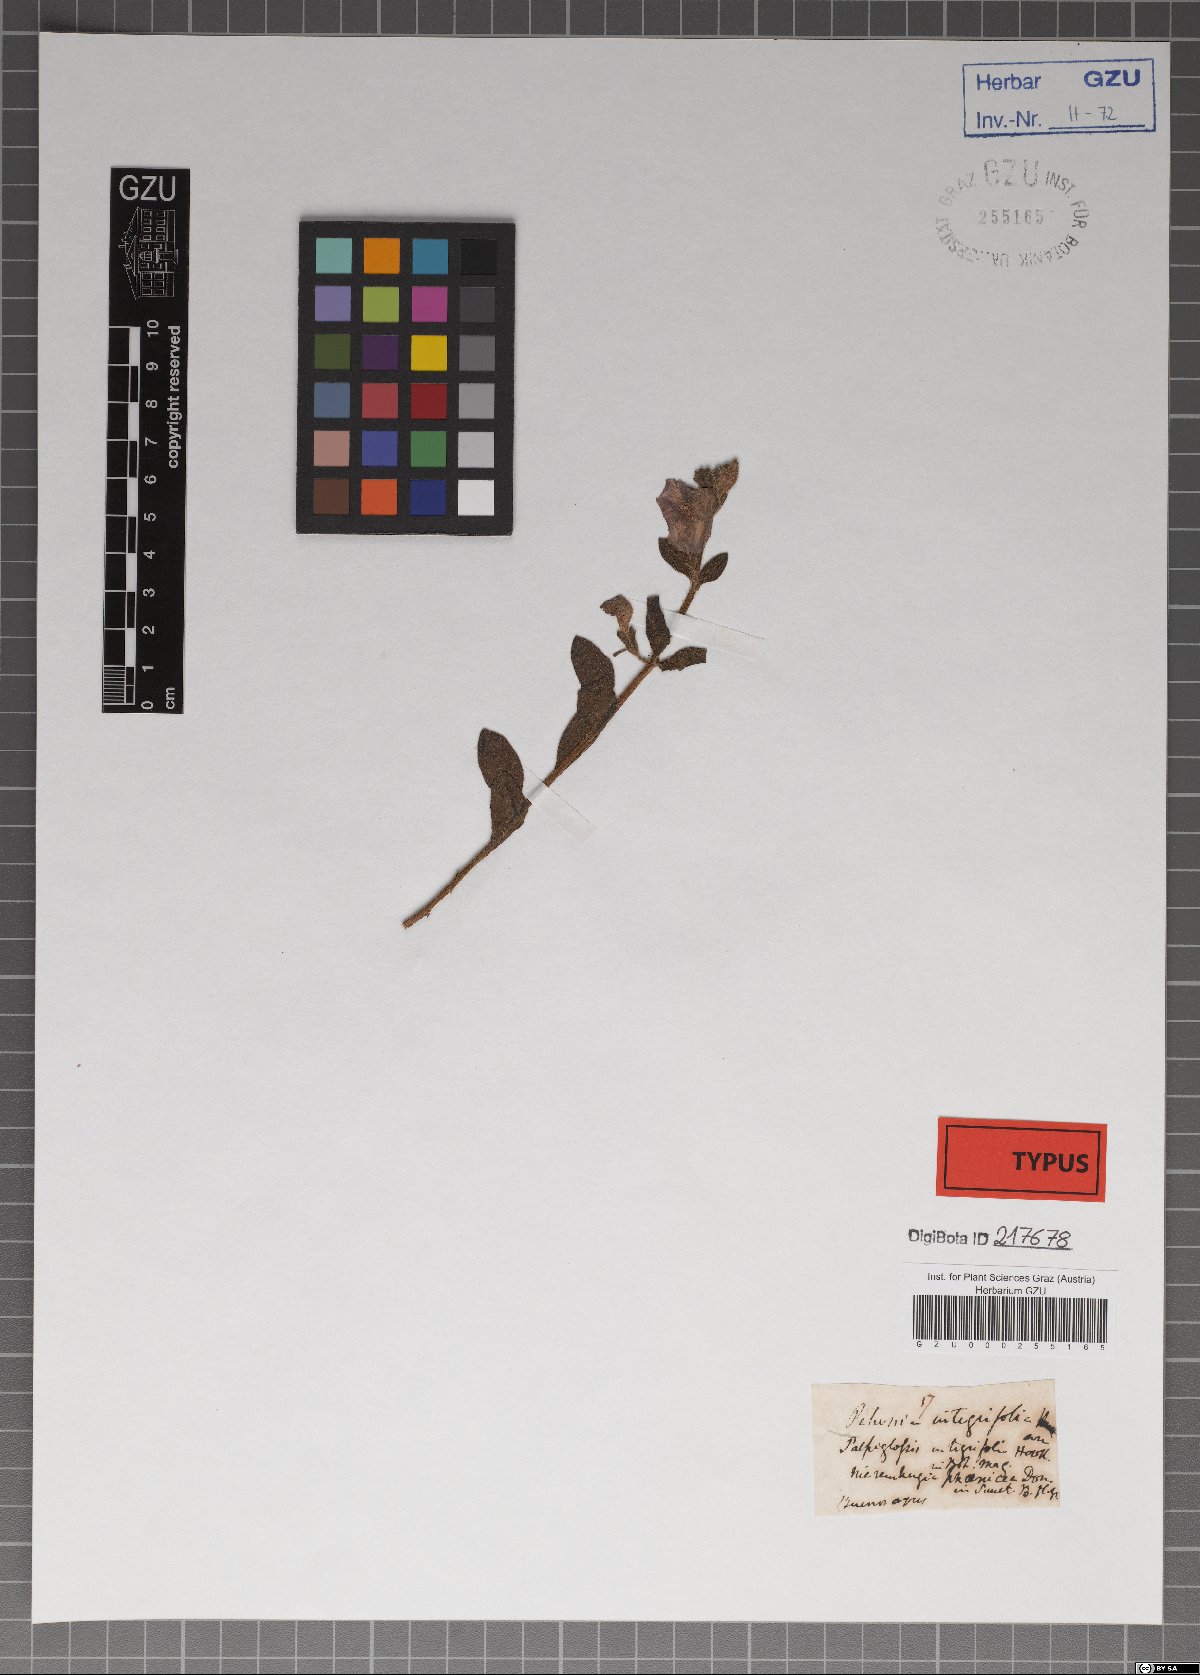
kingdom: Plantae
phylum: Tracheophyta
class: Magnoliopsida
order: Solanales
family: Solanaceae
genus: Petunia
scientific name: Petunia integrifolia
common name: Violet-flower petunia
